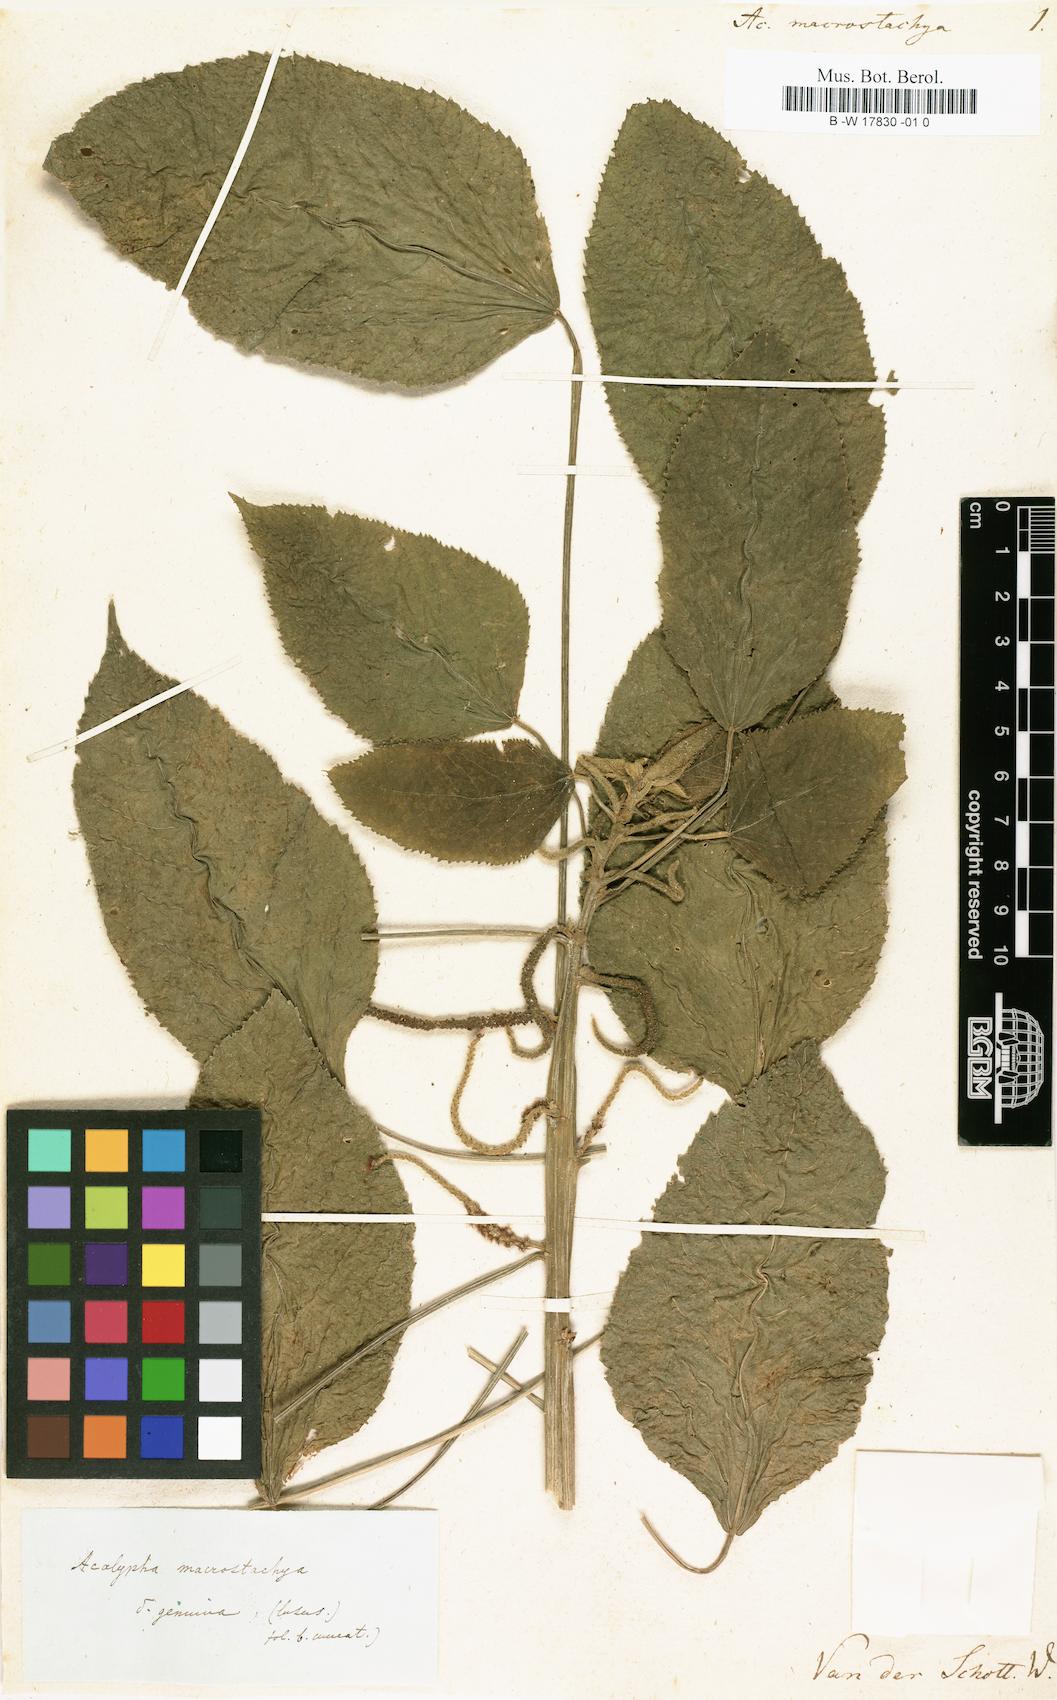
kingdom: Plantae
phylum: Tracheophyta
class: Magnoliopsida
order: Malpighiales
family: Euphorbiaceae
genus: Acalypha
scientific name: Acalypha macrostachya
